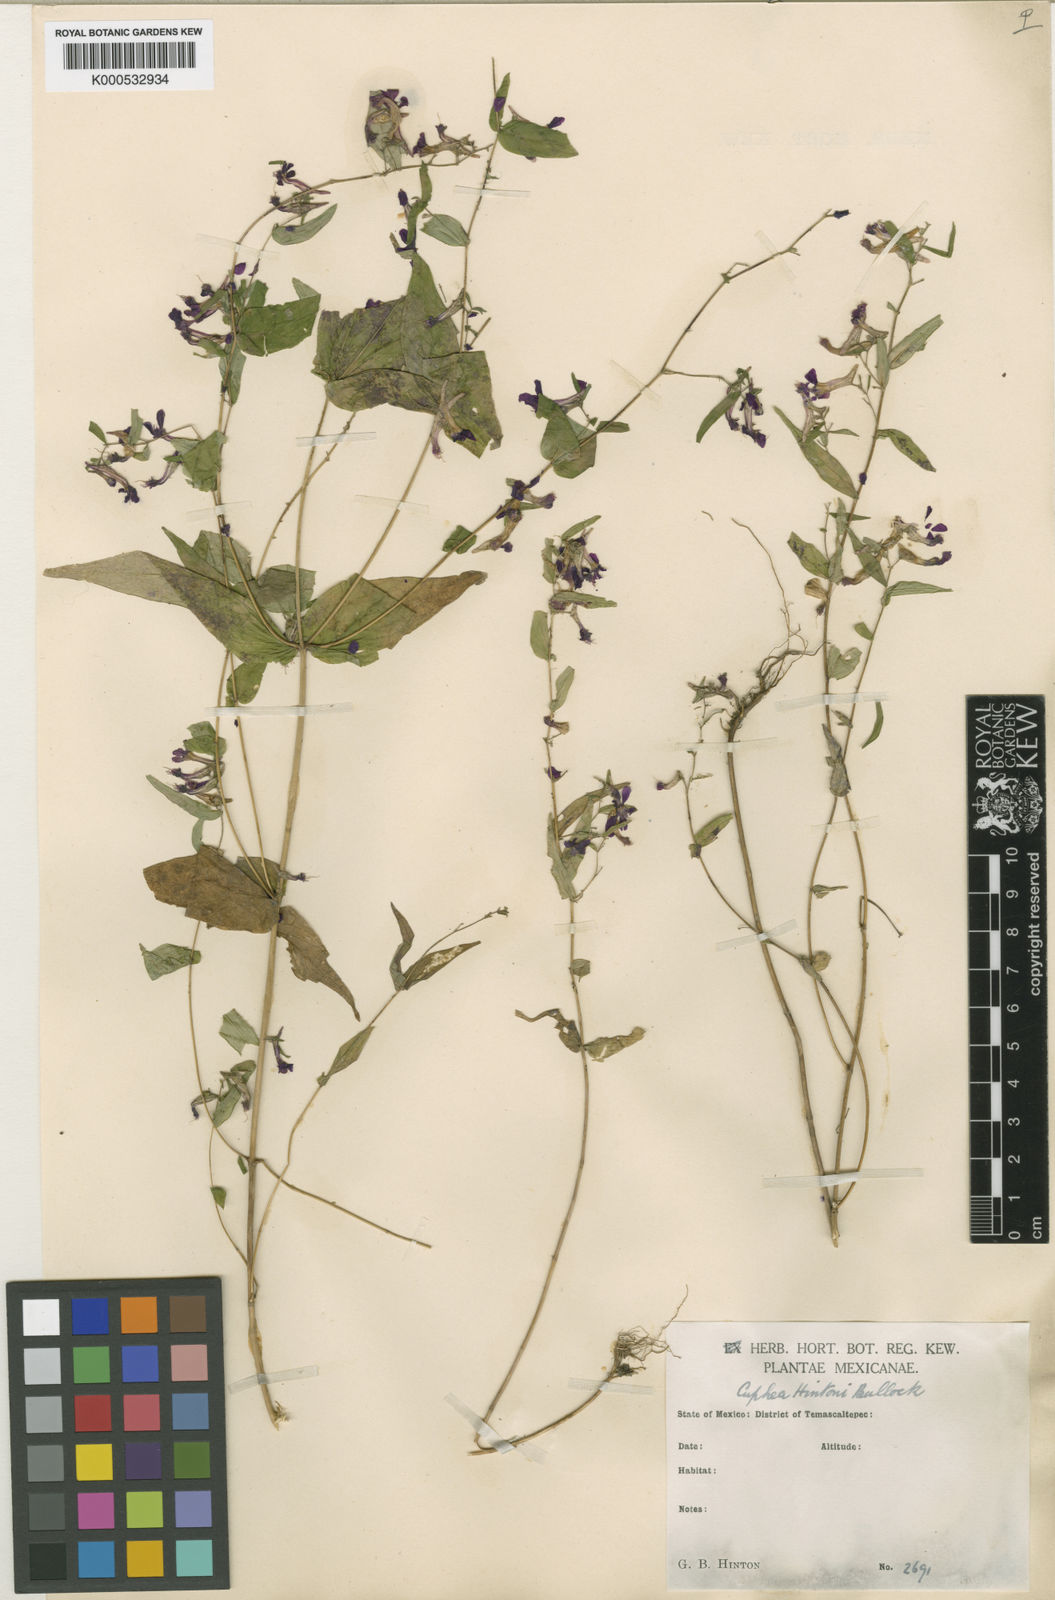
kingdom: Plantae
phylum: Tracheophyta
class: Magnoliopsida
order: Myrtales
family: Lythraceae
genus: Cuphea
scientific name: Cuphea avigera
